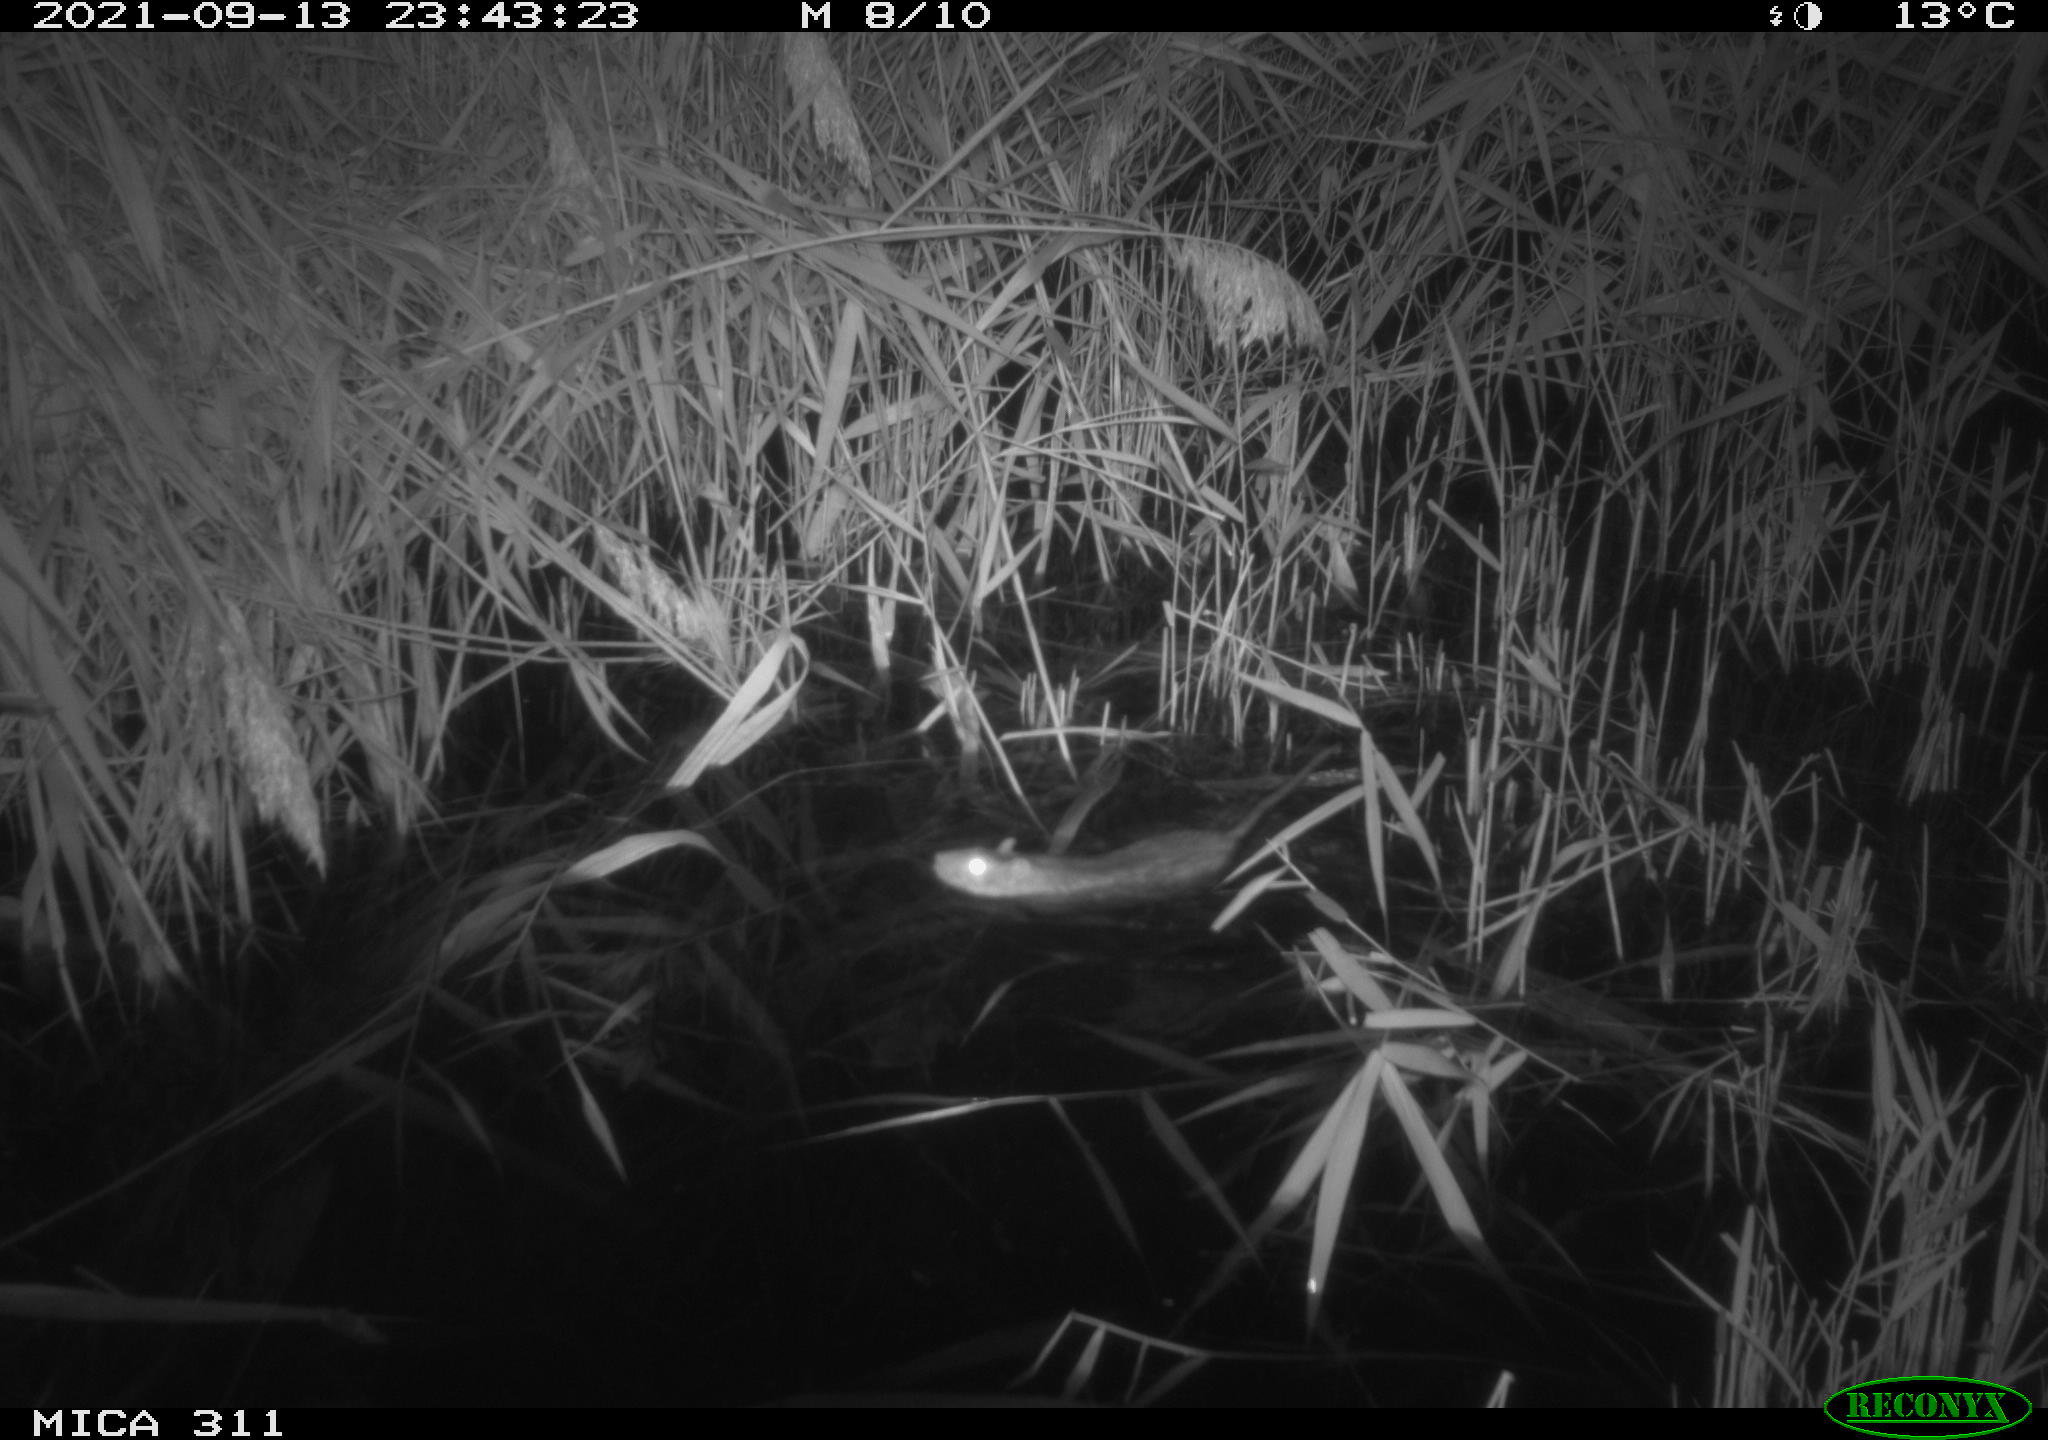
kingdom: Animalia
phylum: Chordata
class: Mammalia
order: Rodentia
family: Muridae
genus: Rattus
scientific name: Rattus norvegicus
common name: Brown rat
